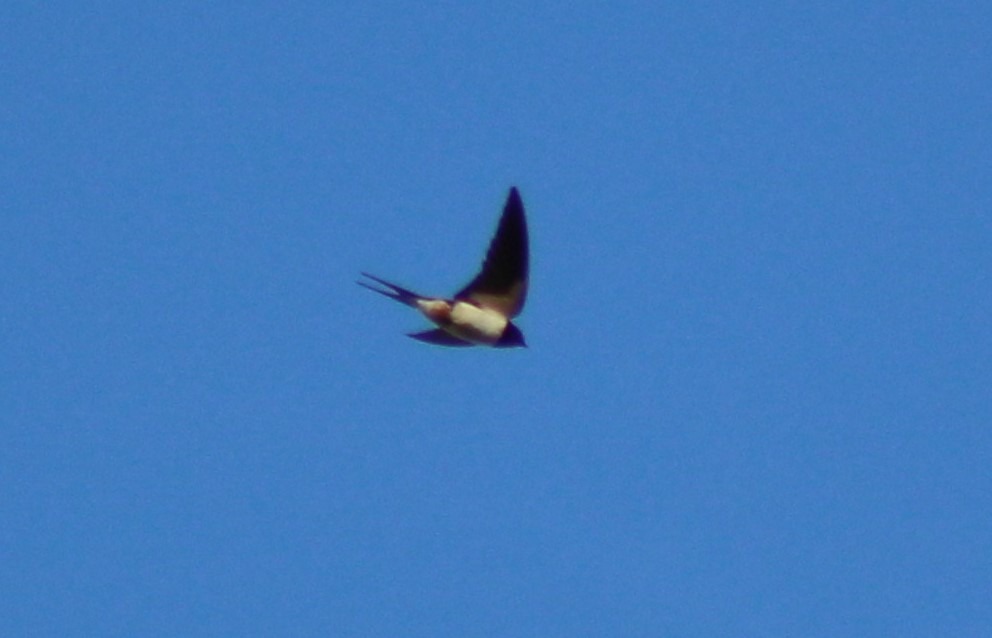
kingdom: Animalia
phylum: Chordata
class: Aves
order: Passeriformes
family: Hirundinidae
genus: Hirundo
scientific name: Hirundo rustica
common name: Landsvale
